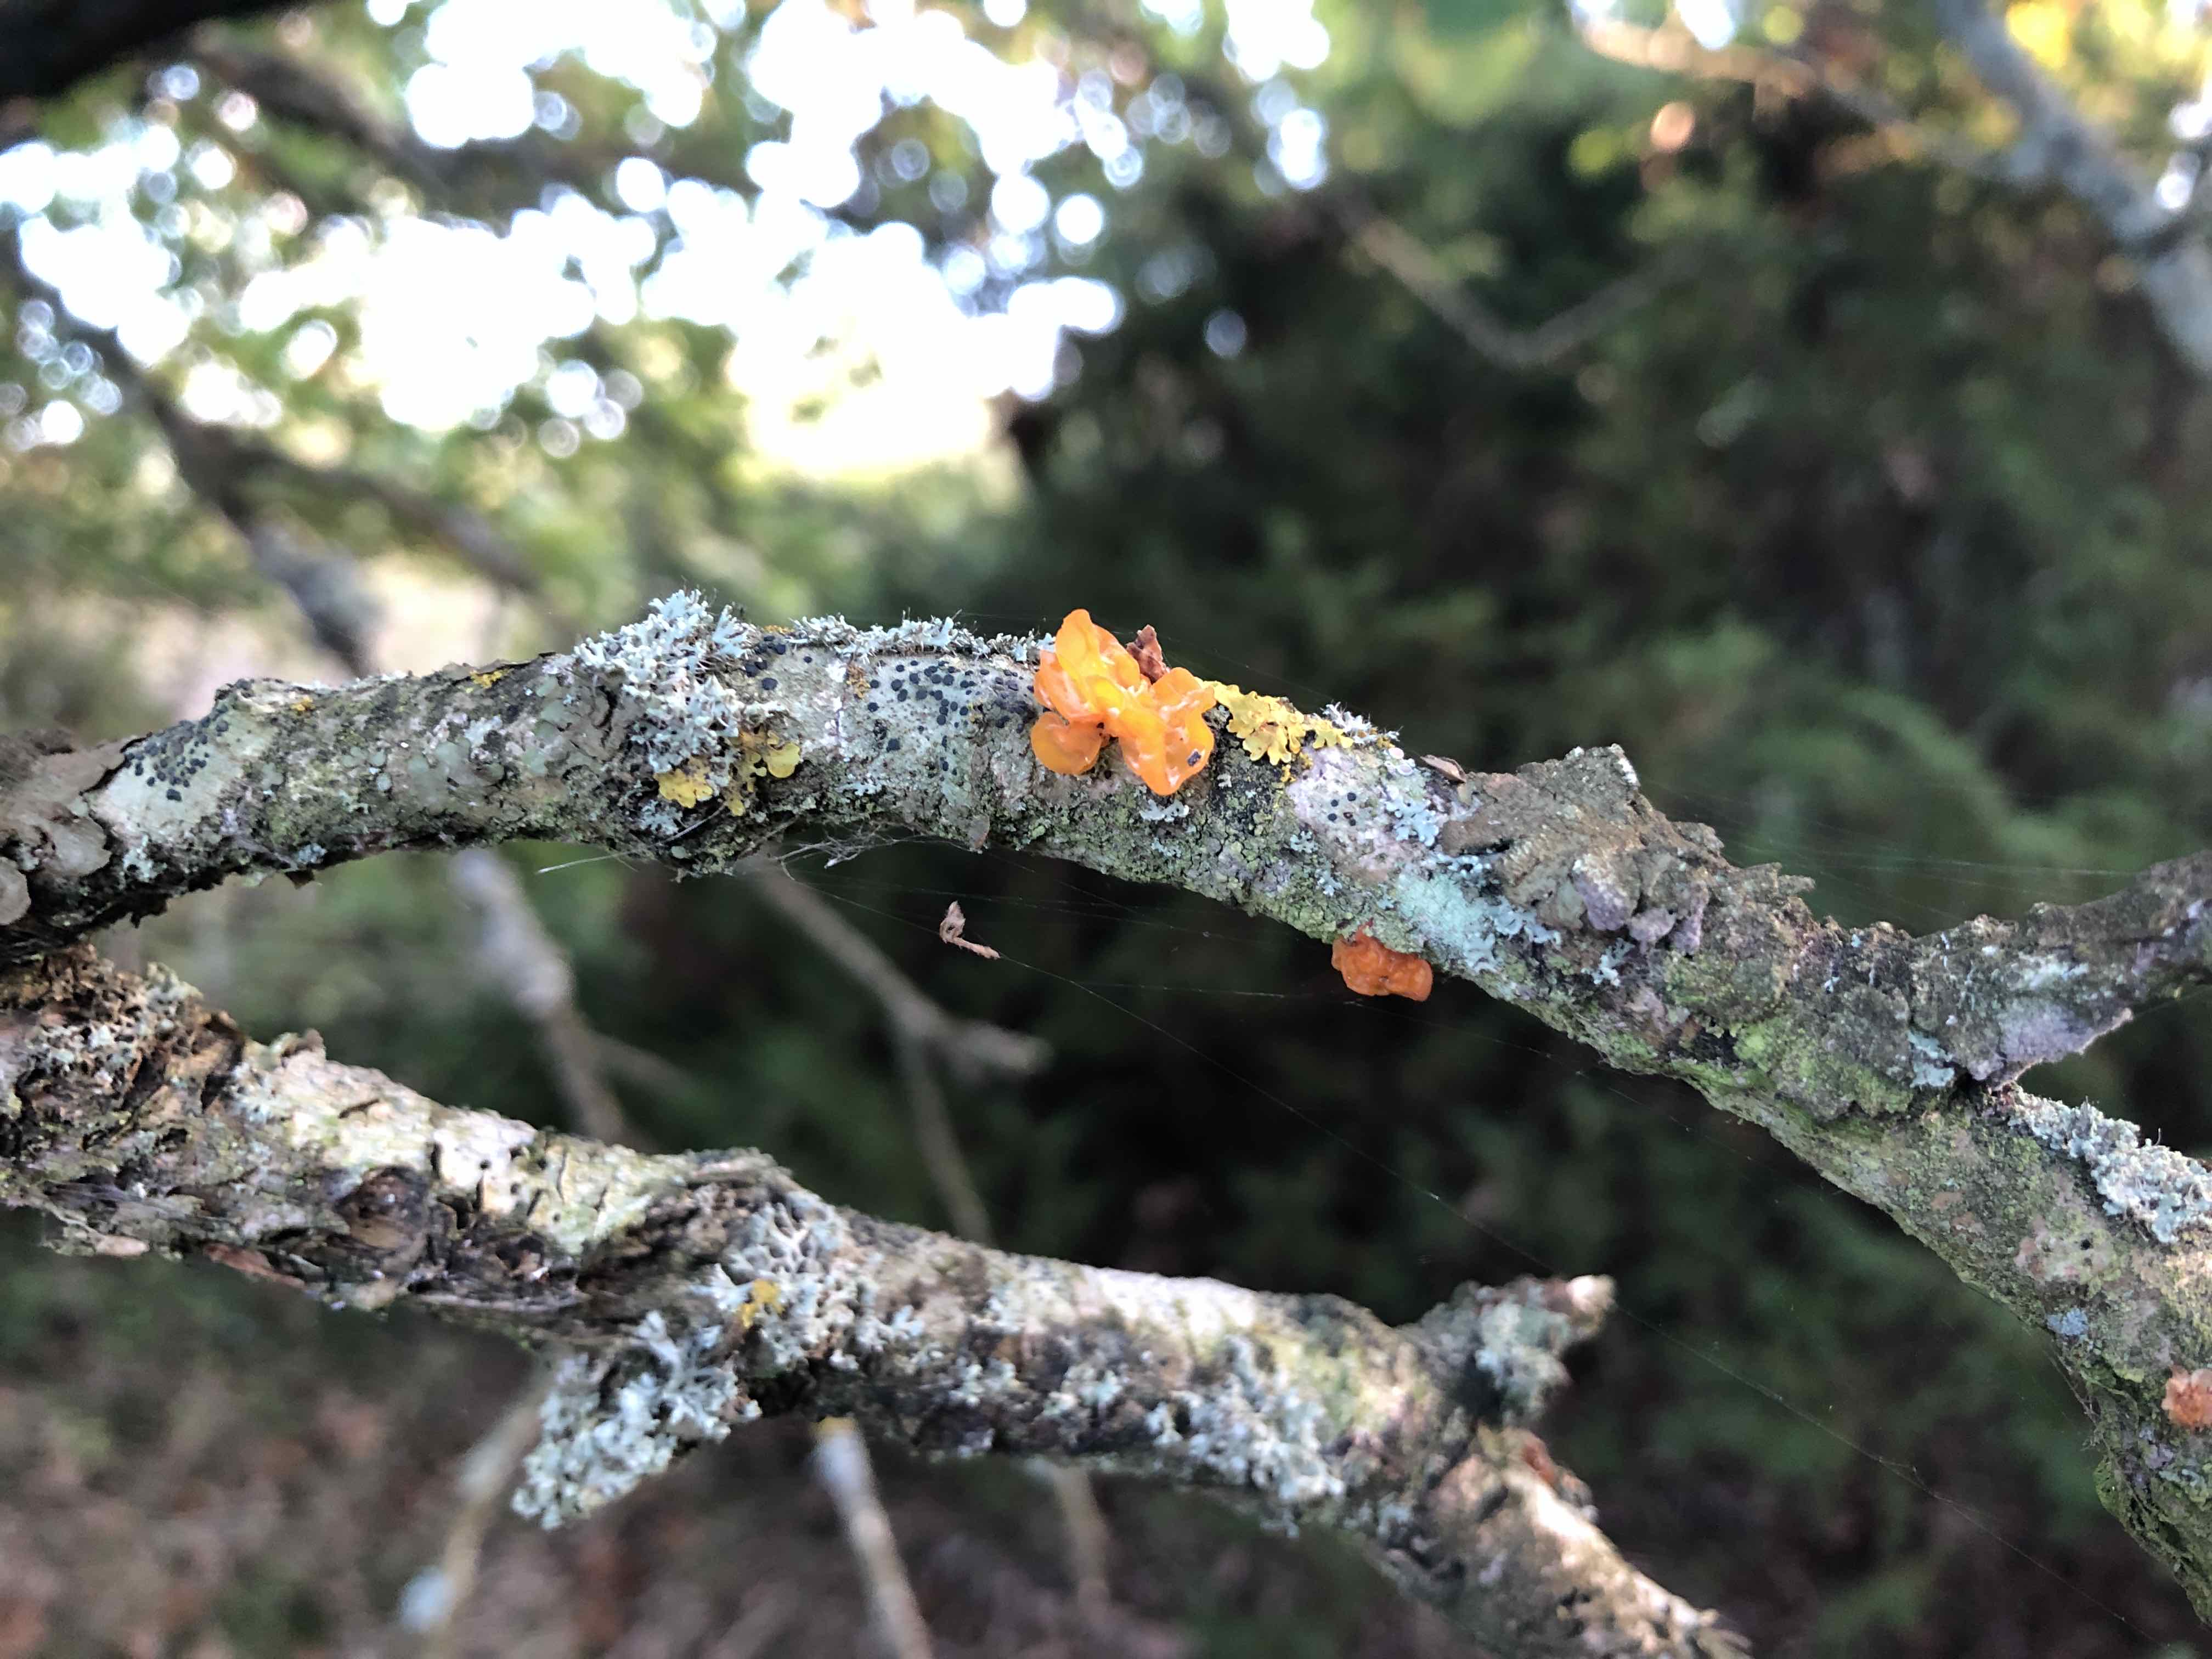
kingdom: Fungi
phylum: Basidiomycota
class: Tremellomycetes
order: Tremellales
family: Tremellaceae
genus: Tremella
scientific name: Tremella mesenterica
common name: gul bævresvamp
